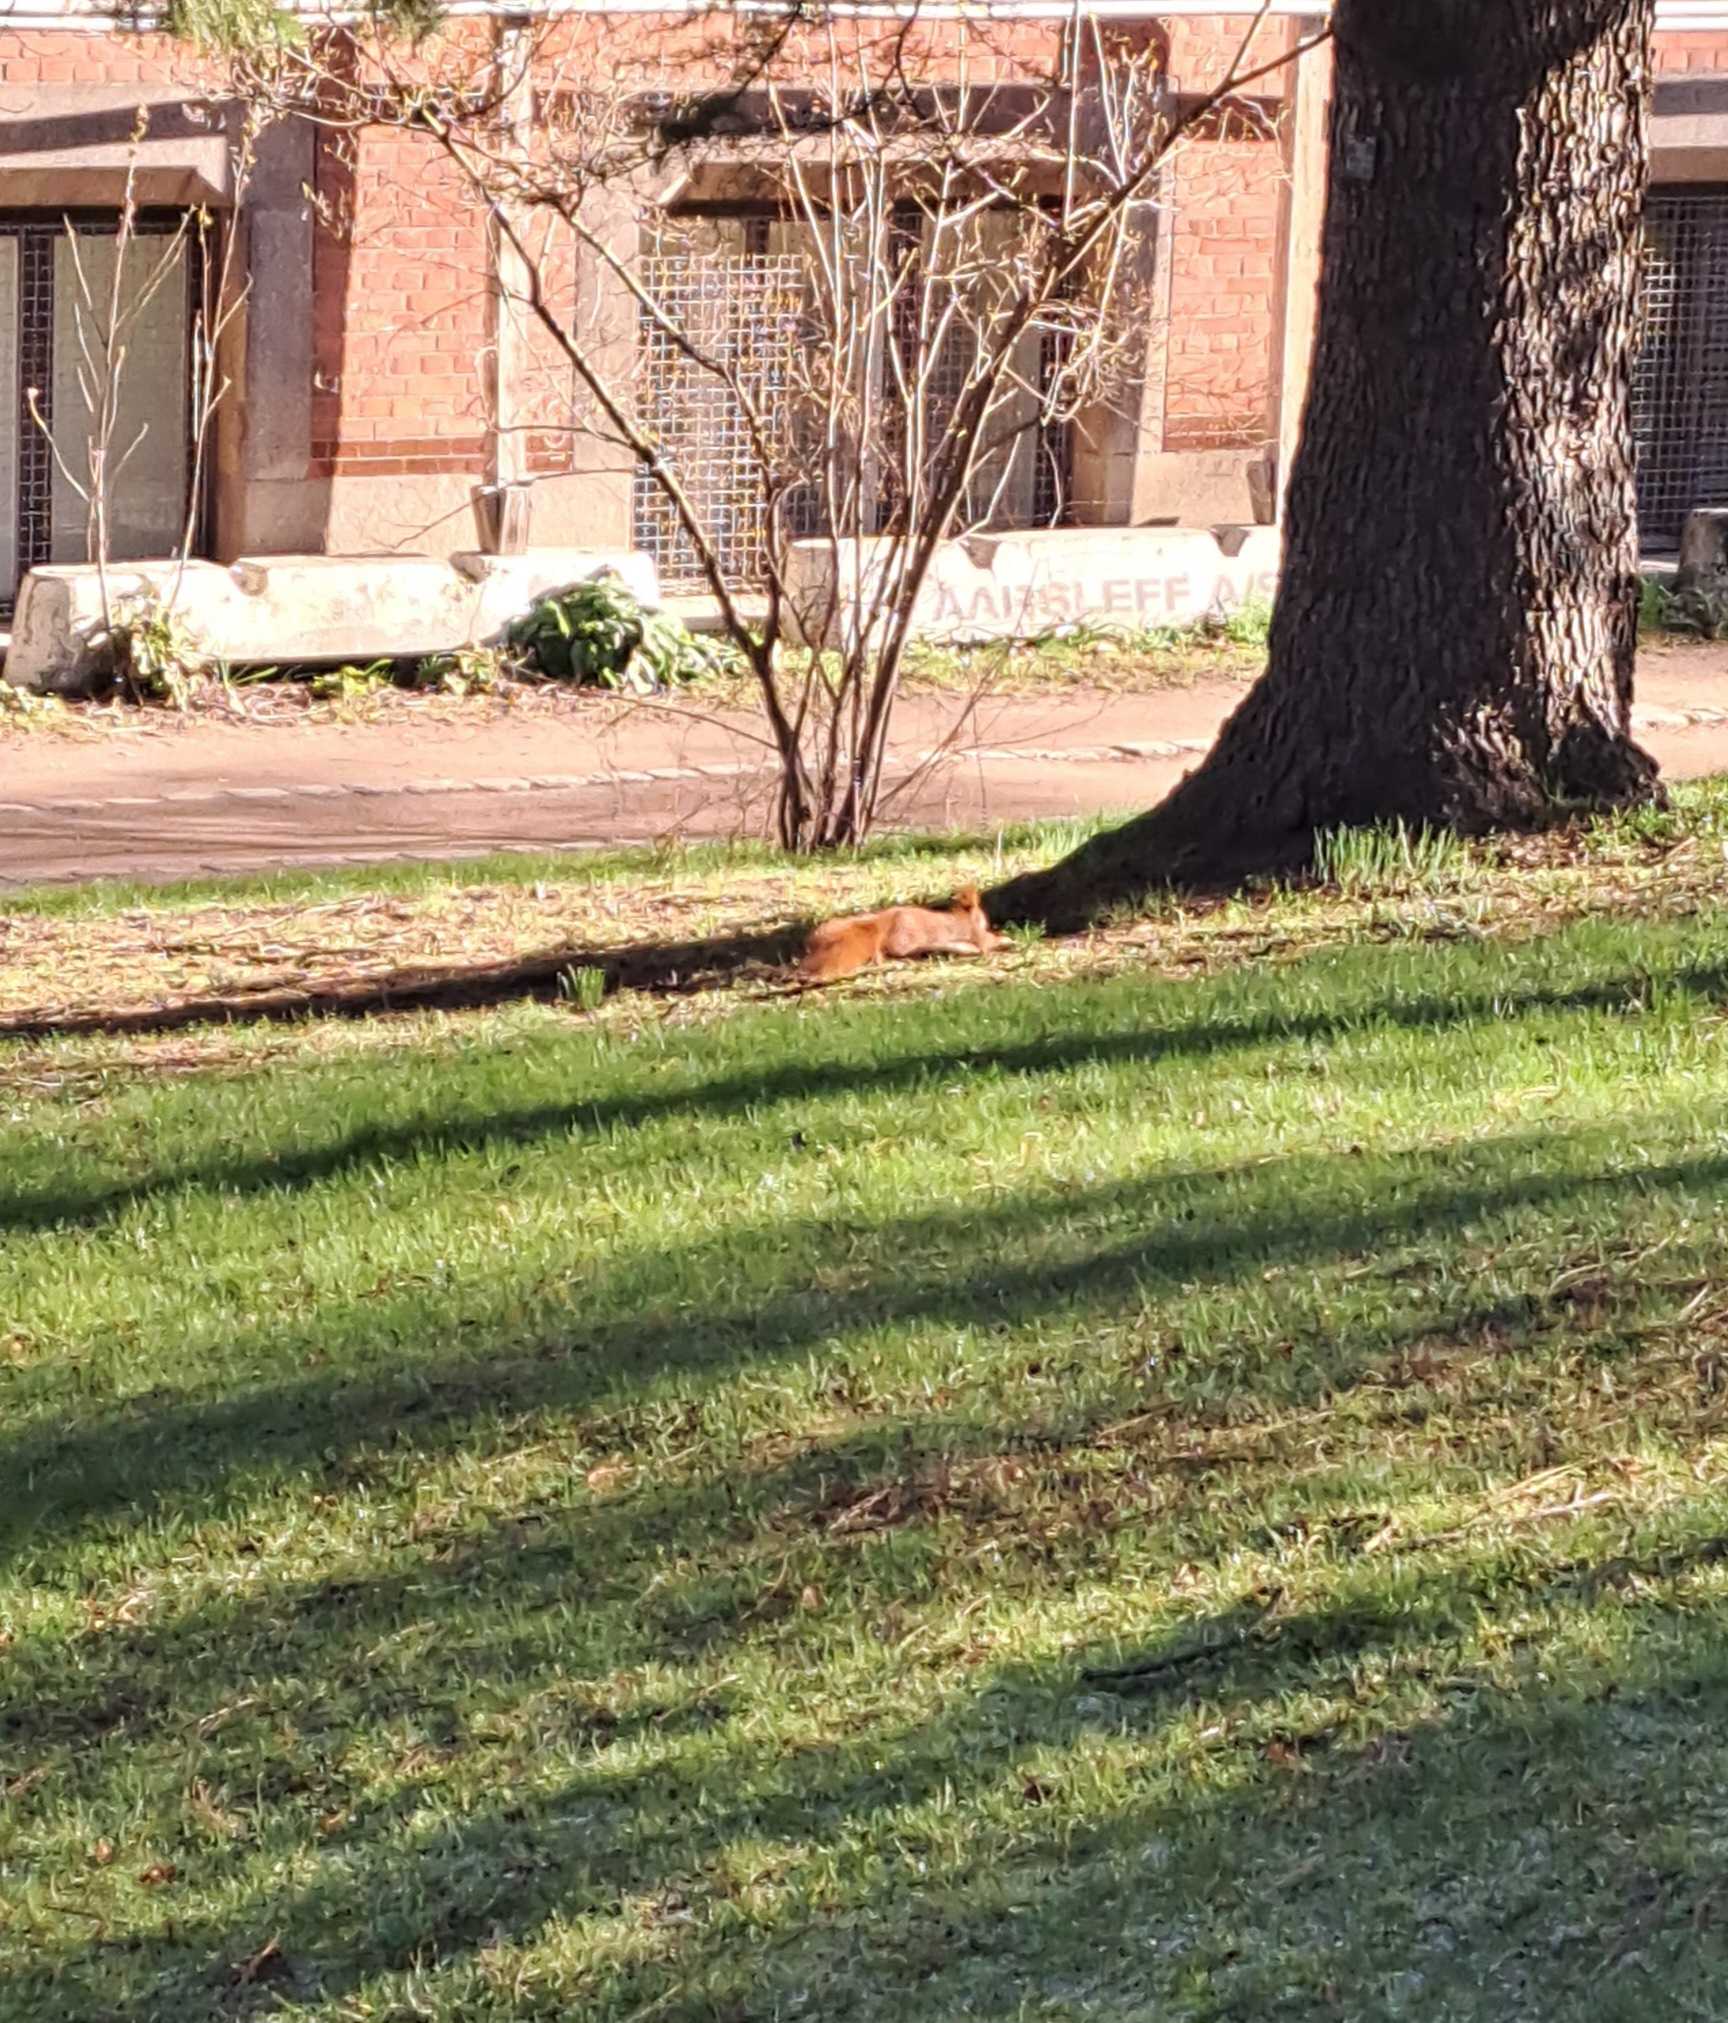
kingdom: Animalia
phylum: Chordata
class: Mammalia
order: Rodentia
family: Sciuridae
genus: Sciurus
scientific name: Sciurus vulgaris
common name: Egern
